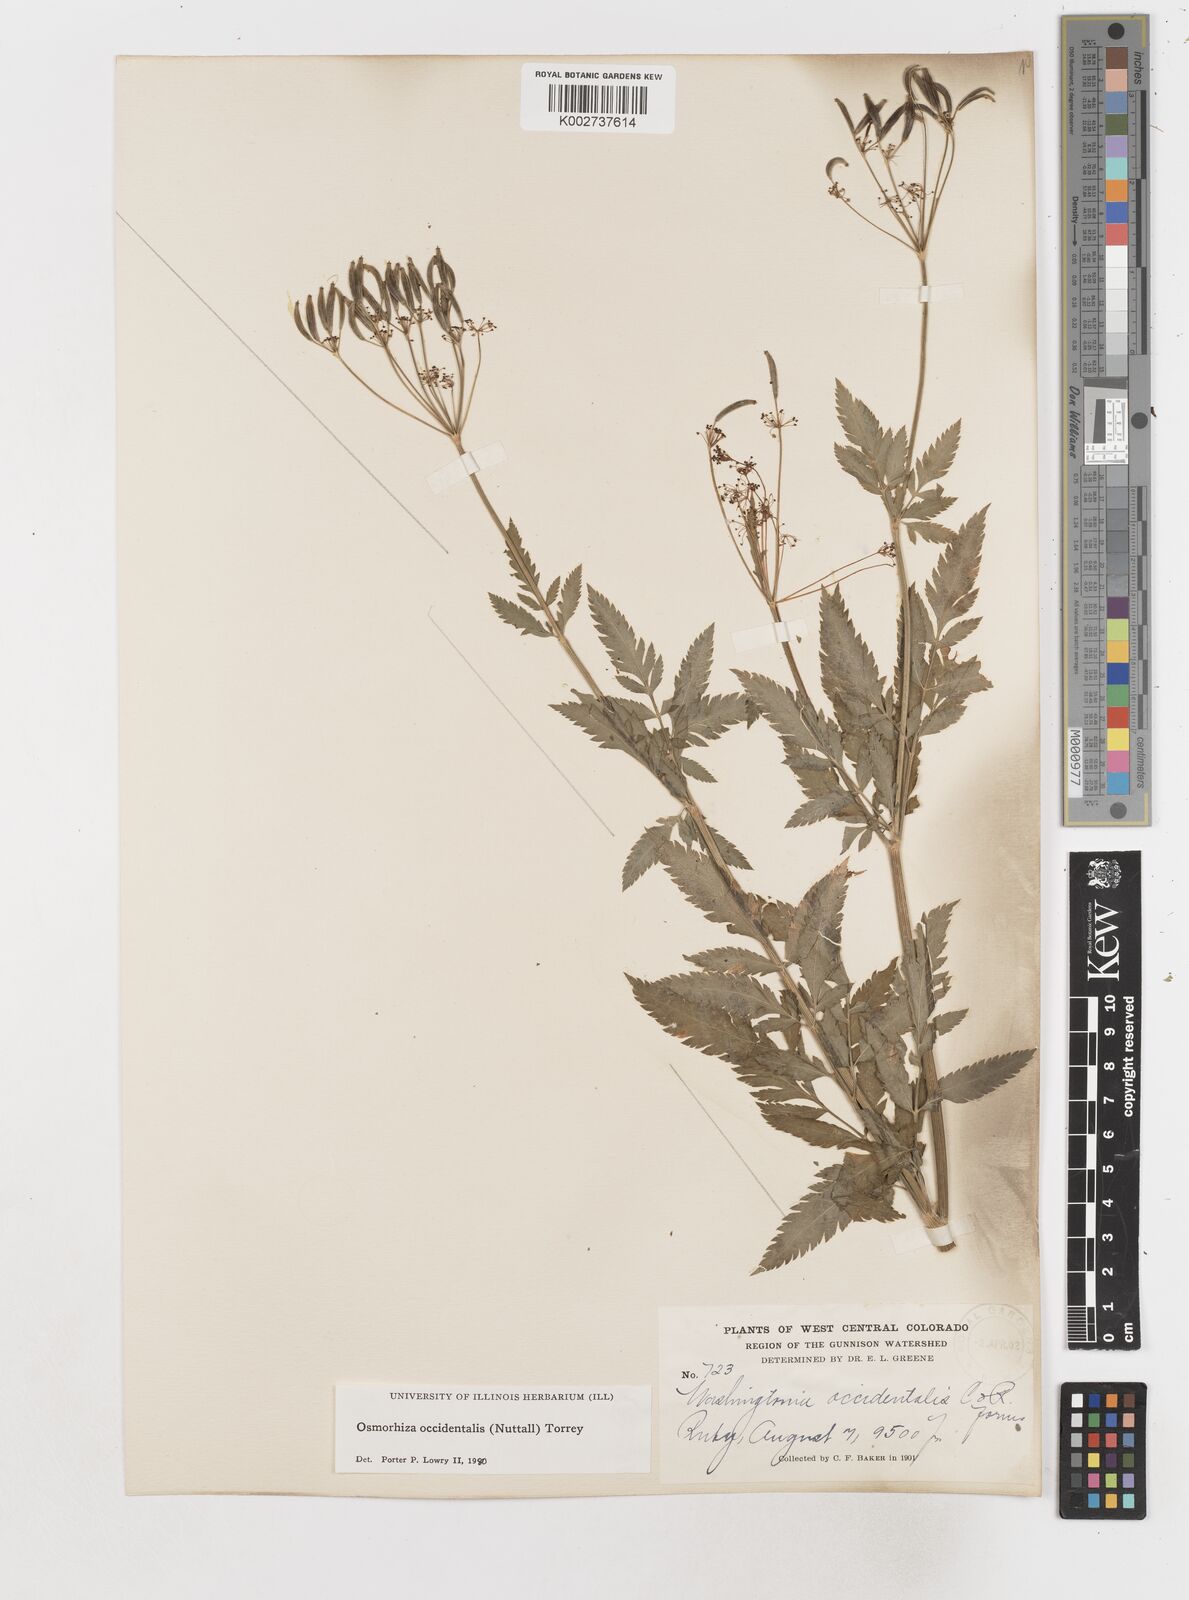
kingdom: Plantae
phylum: Tracheophyta
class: Magnoliopsida
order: Apiales
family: Apiaceae
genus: Osmorhiza
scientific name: Osmorhiza occidentalis
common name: Western sweet cicely
